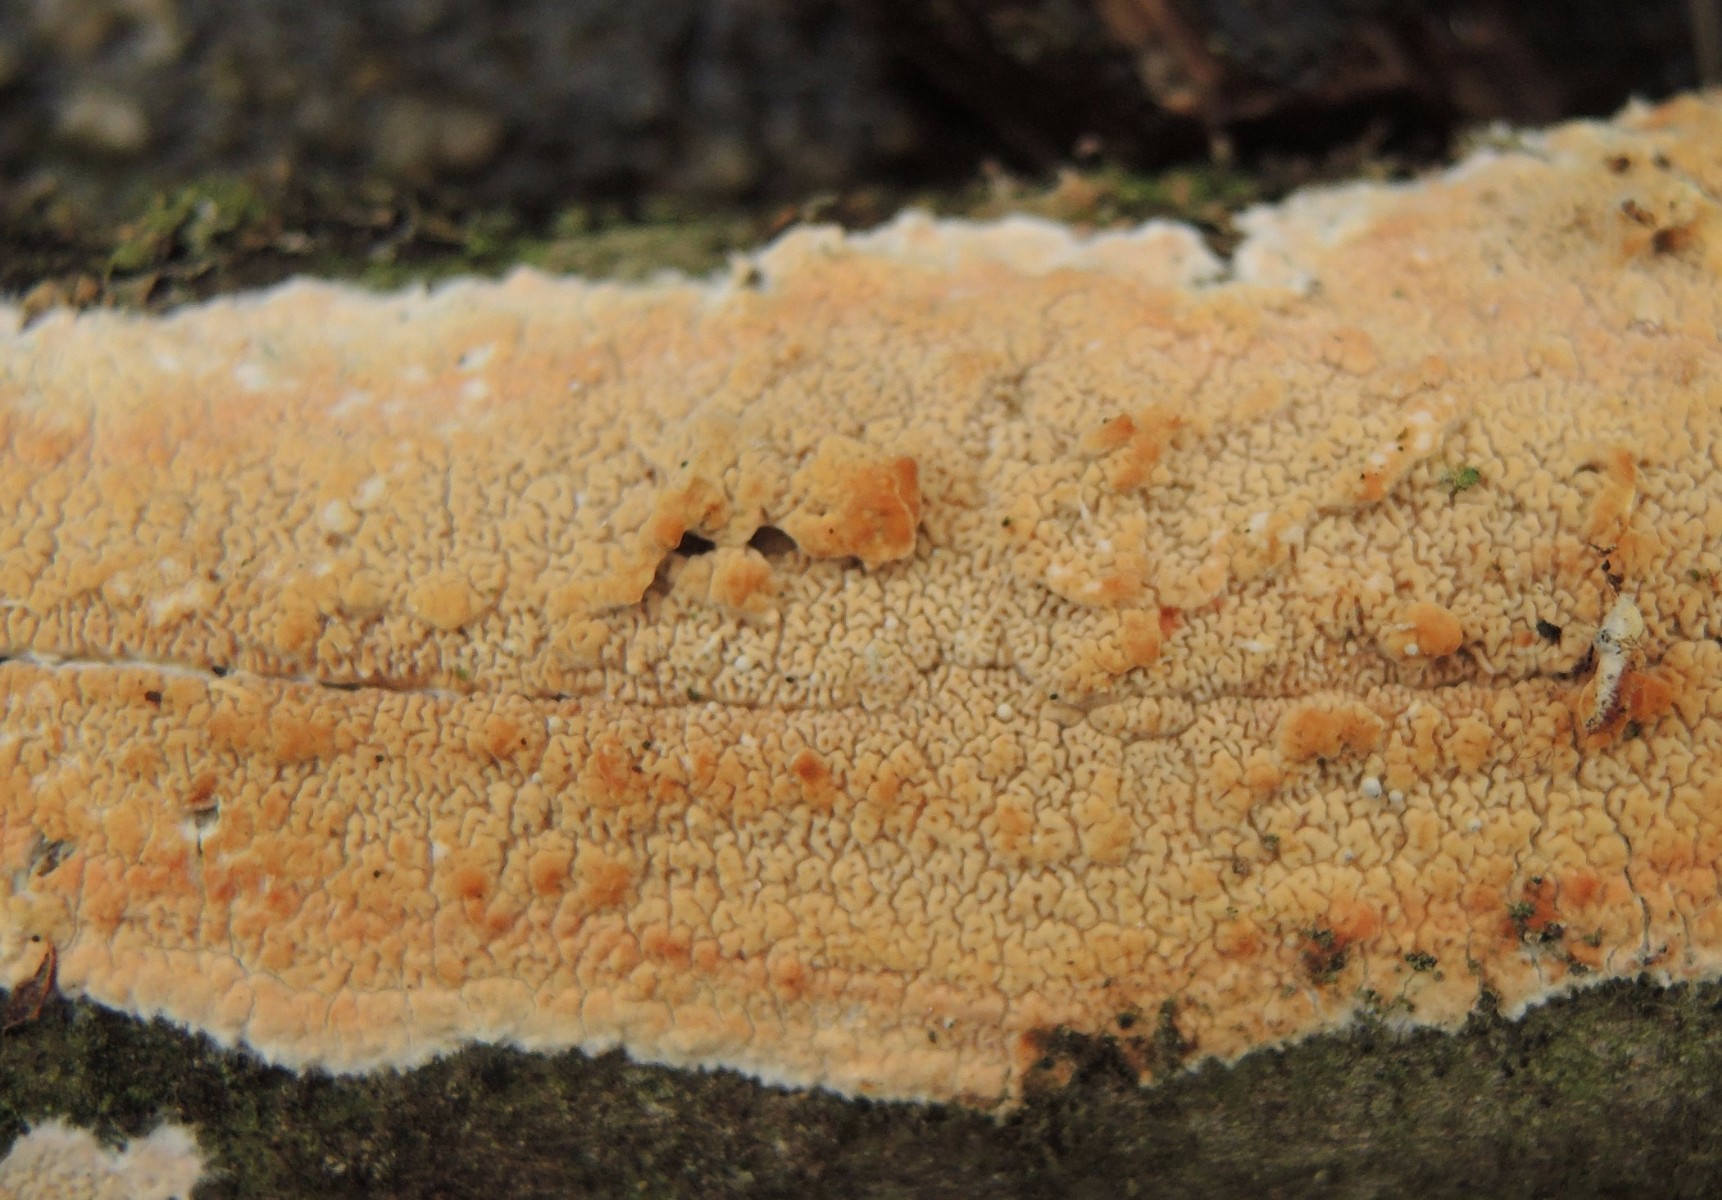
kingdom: Fungi
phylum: Basidiomycota
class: Agaricomycetes
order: Polyporales
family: Meruliaceae
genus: Phlebia
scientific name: Phlebia rufa
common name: ege-åresvamp
